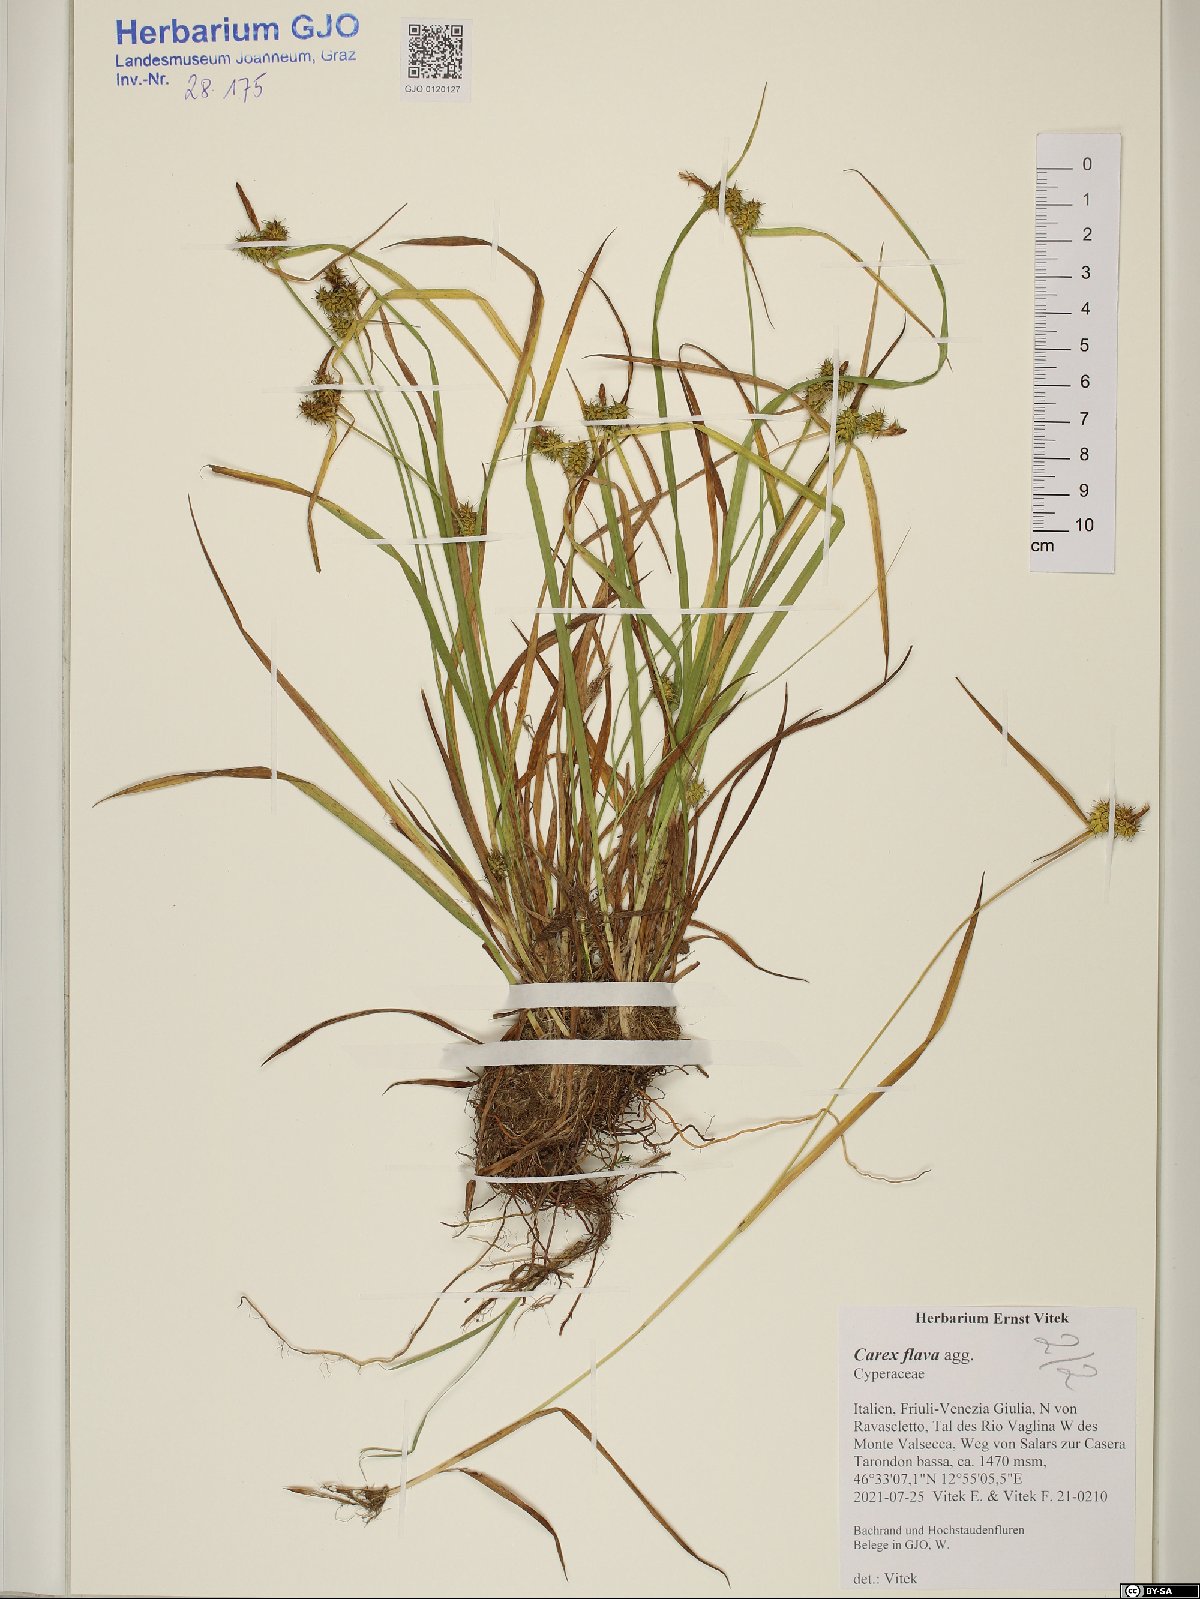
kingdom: Plantae
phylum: Tracheophyta
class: Liliopsida
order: Poales
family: Cyperaceae
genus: Carex
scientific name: Carex flava
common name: Large yellow-sedge
